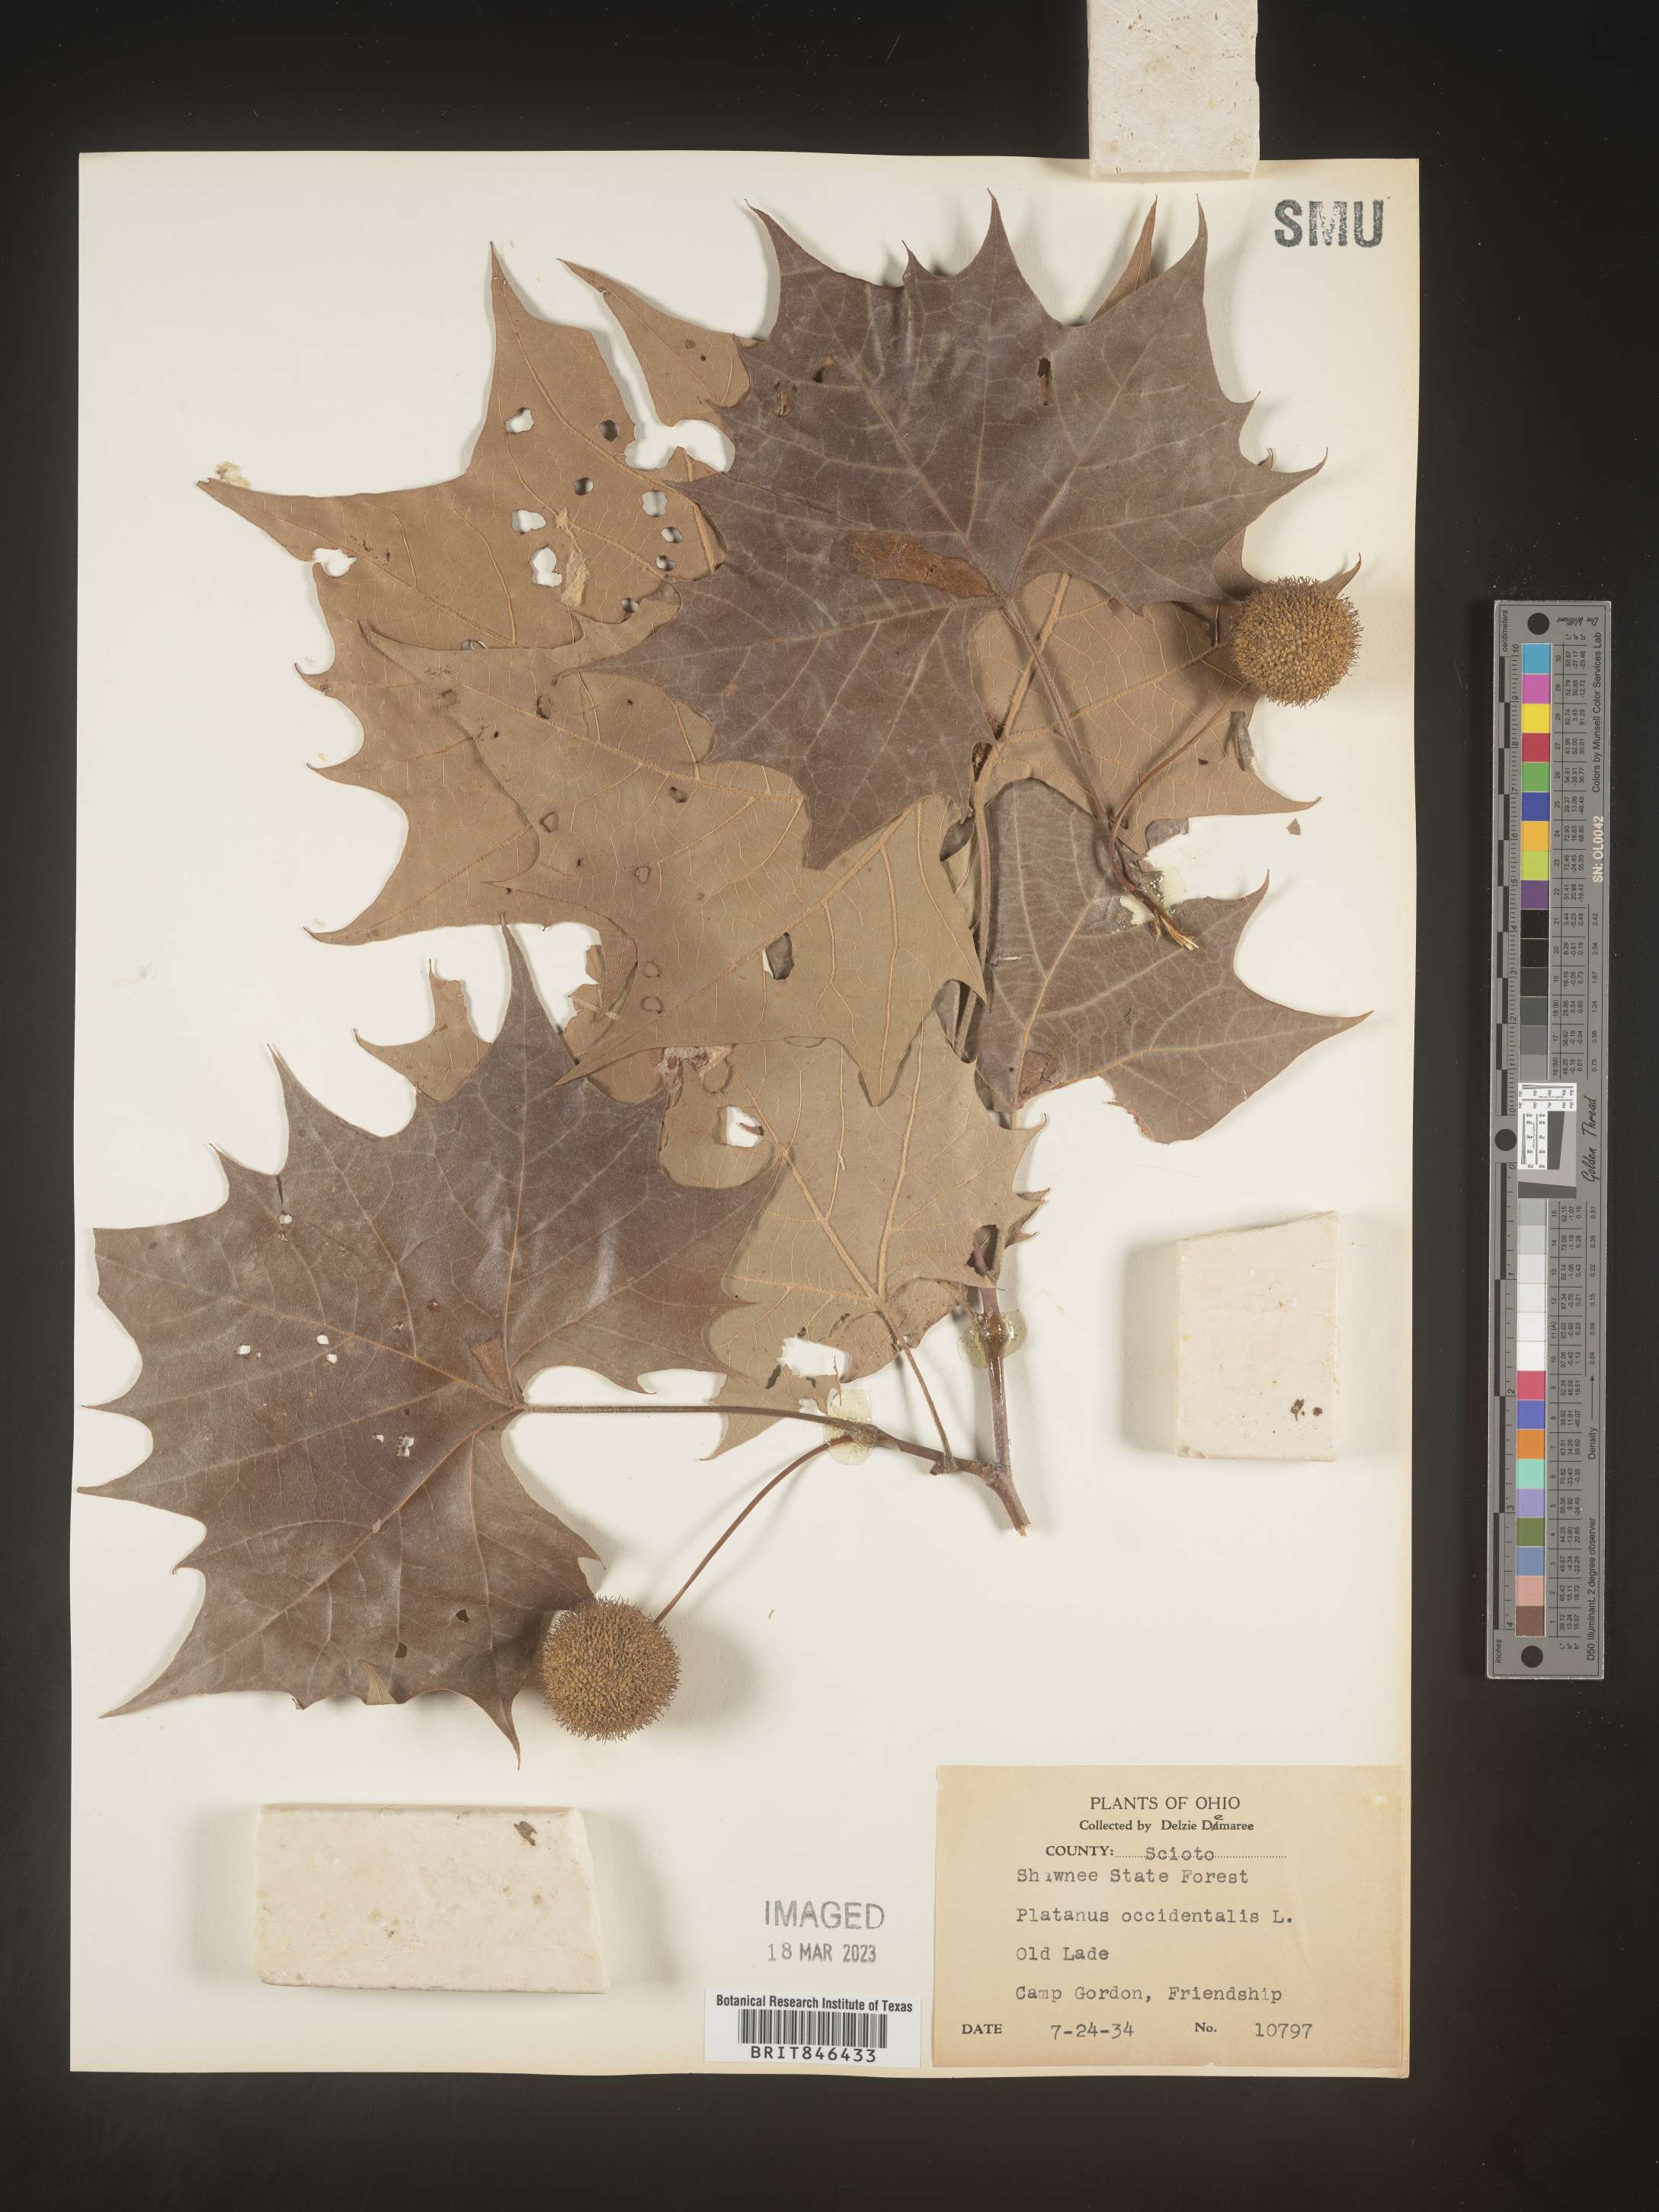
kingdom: Plantae
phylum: Tracheophyta
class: Magnoliopsida
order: Proteales
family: Platanaceae
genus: Platanus
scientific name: Platanus occidentalis
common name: American sycamore
